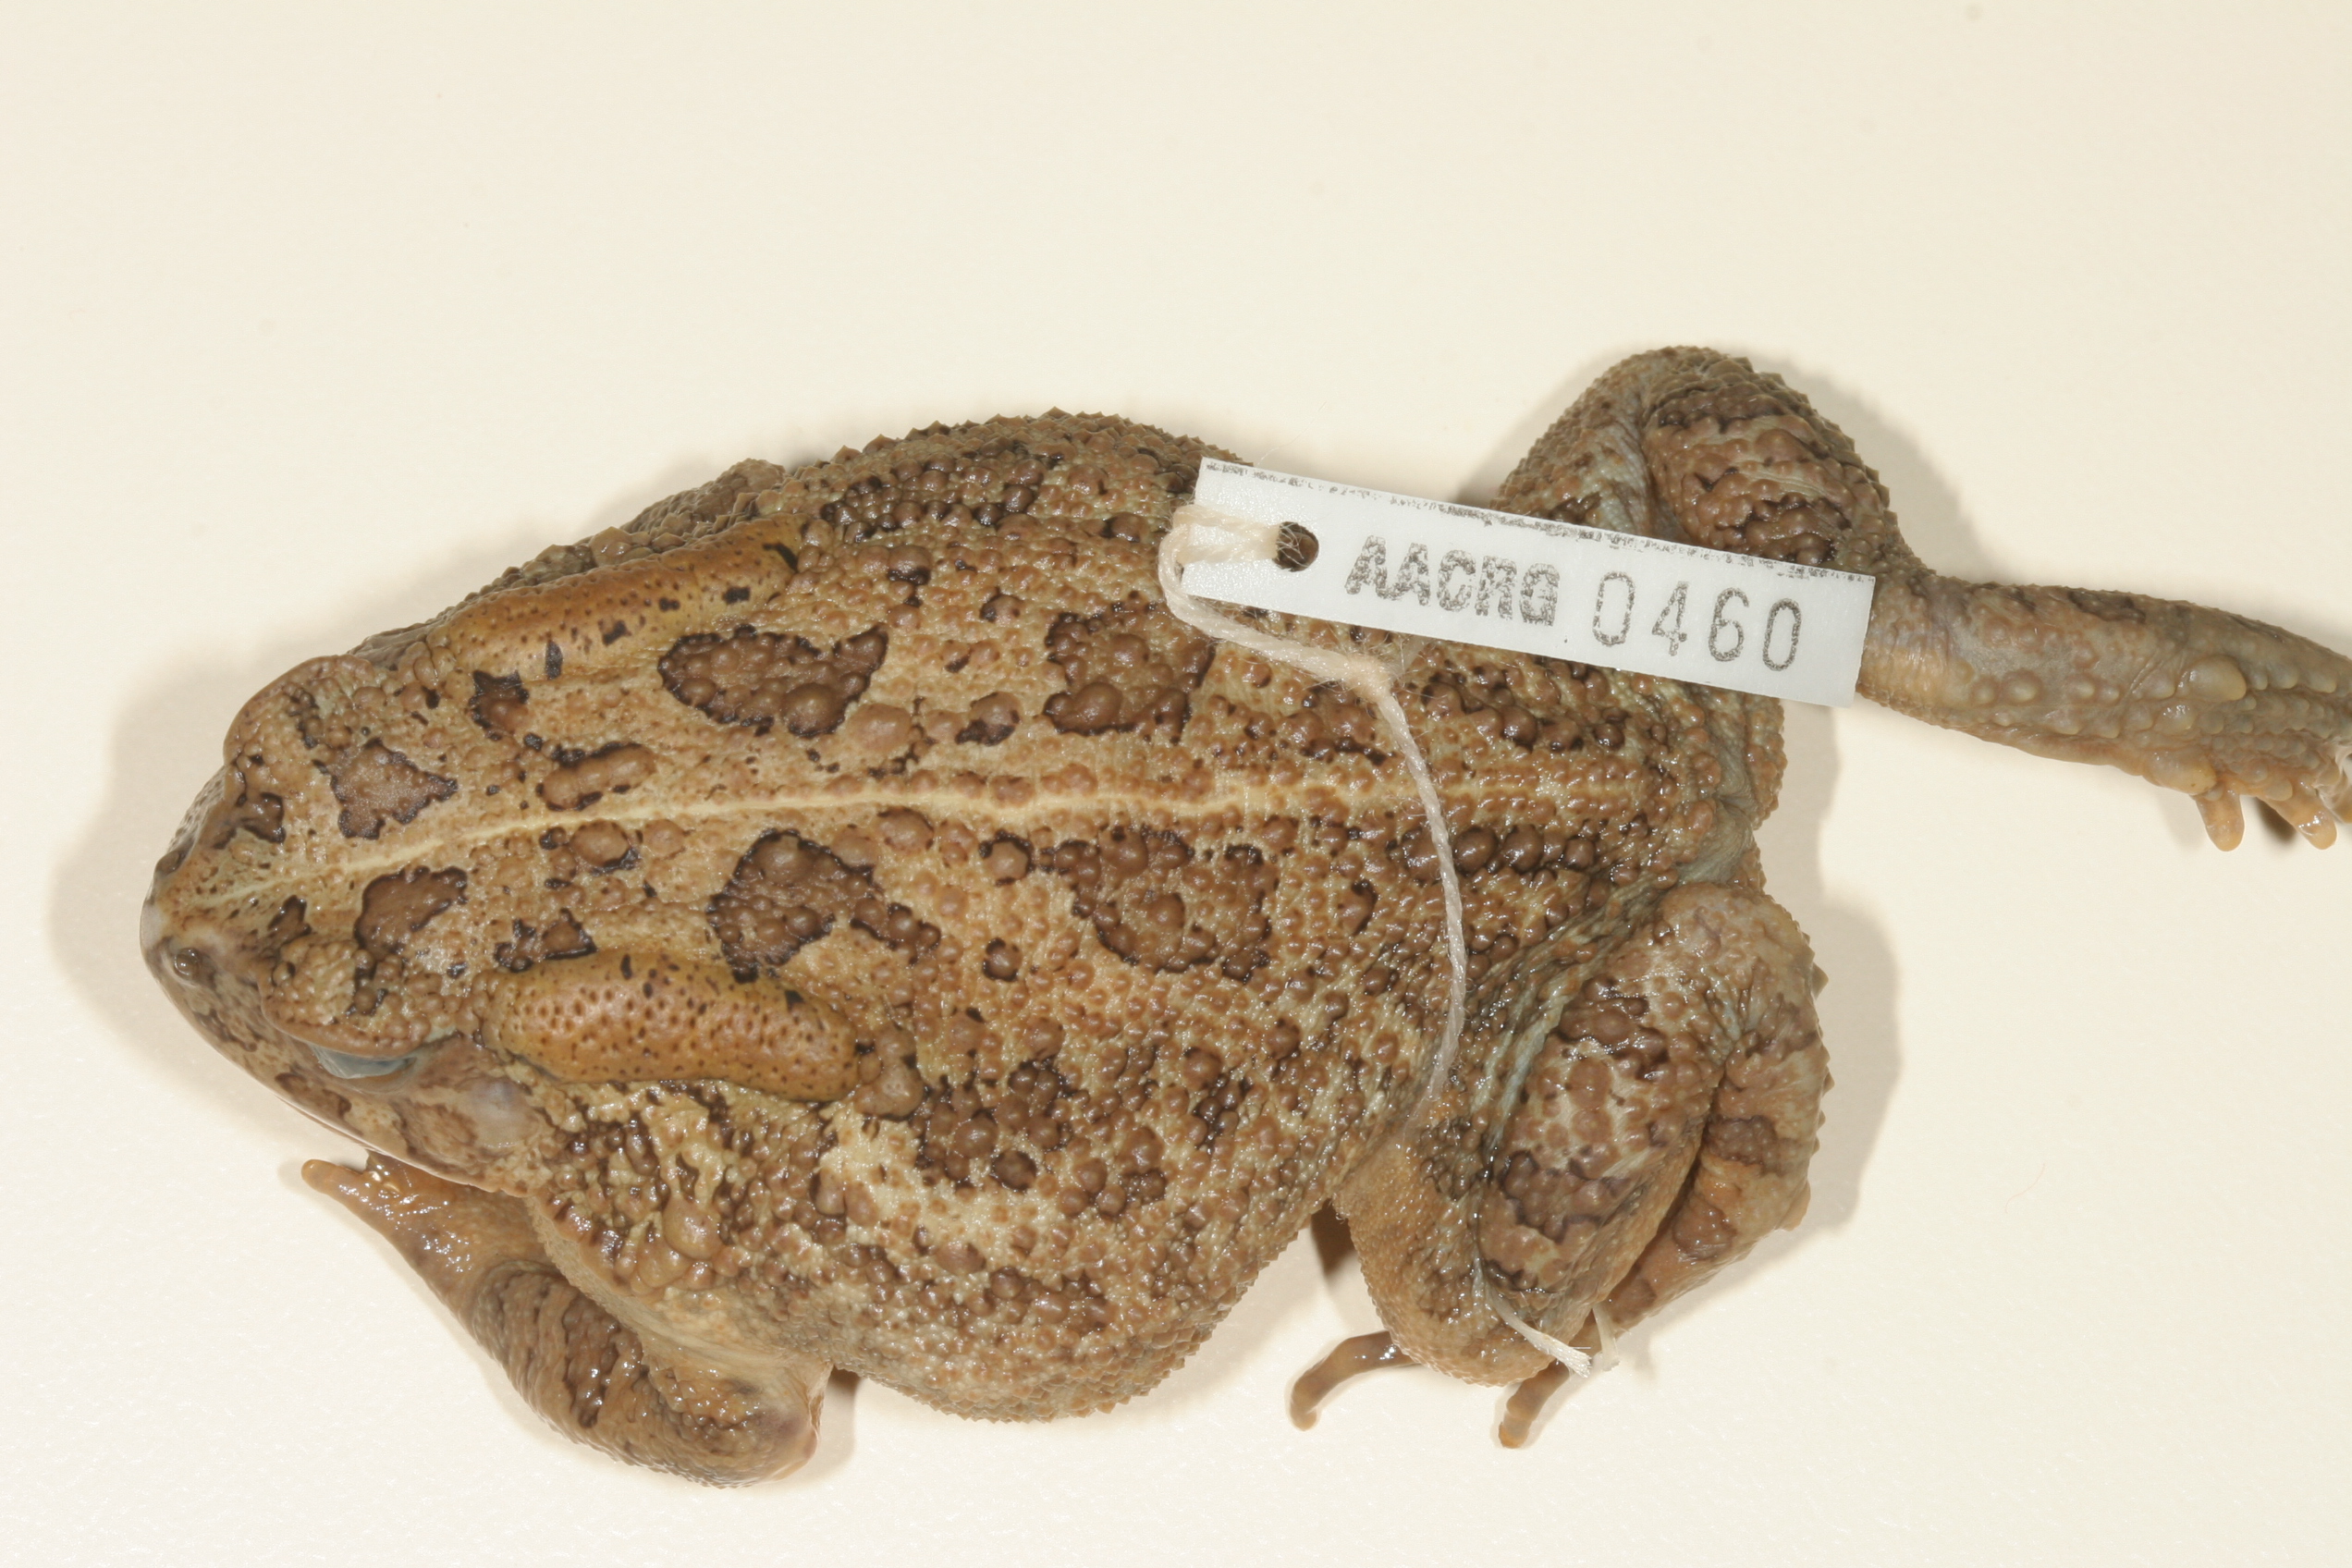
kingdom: Animalia
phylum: Chordata
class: Amphibia
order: Anura
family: Bufonidae
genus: Sclerophrys
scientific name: Sclerophrys gutturalis
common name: African common toad
